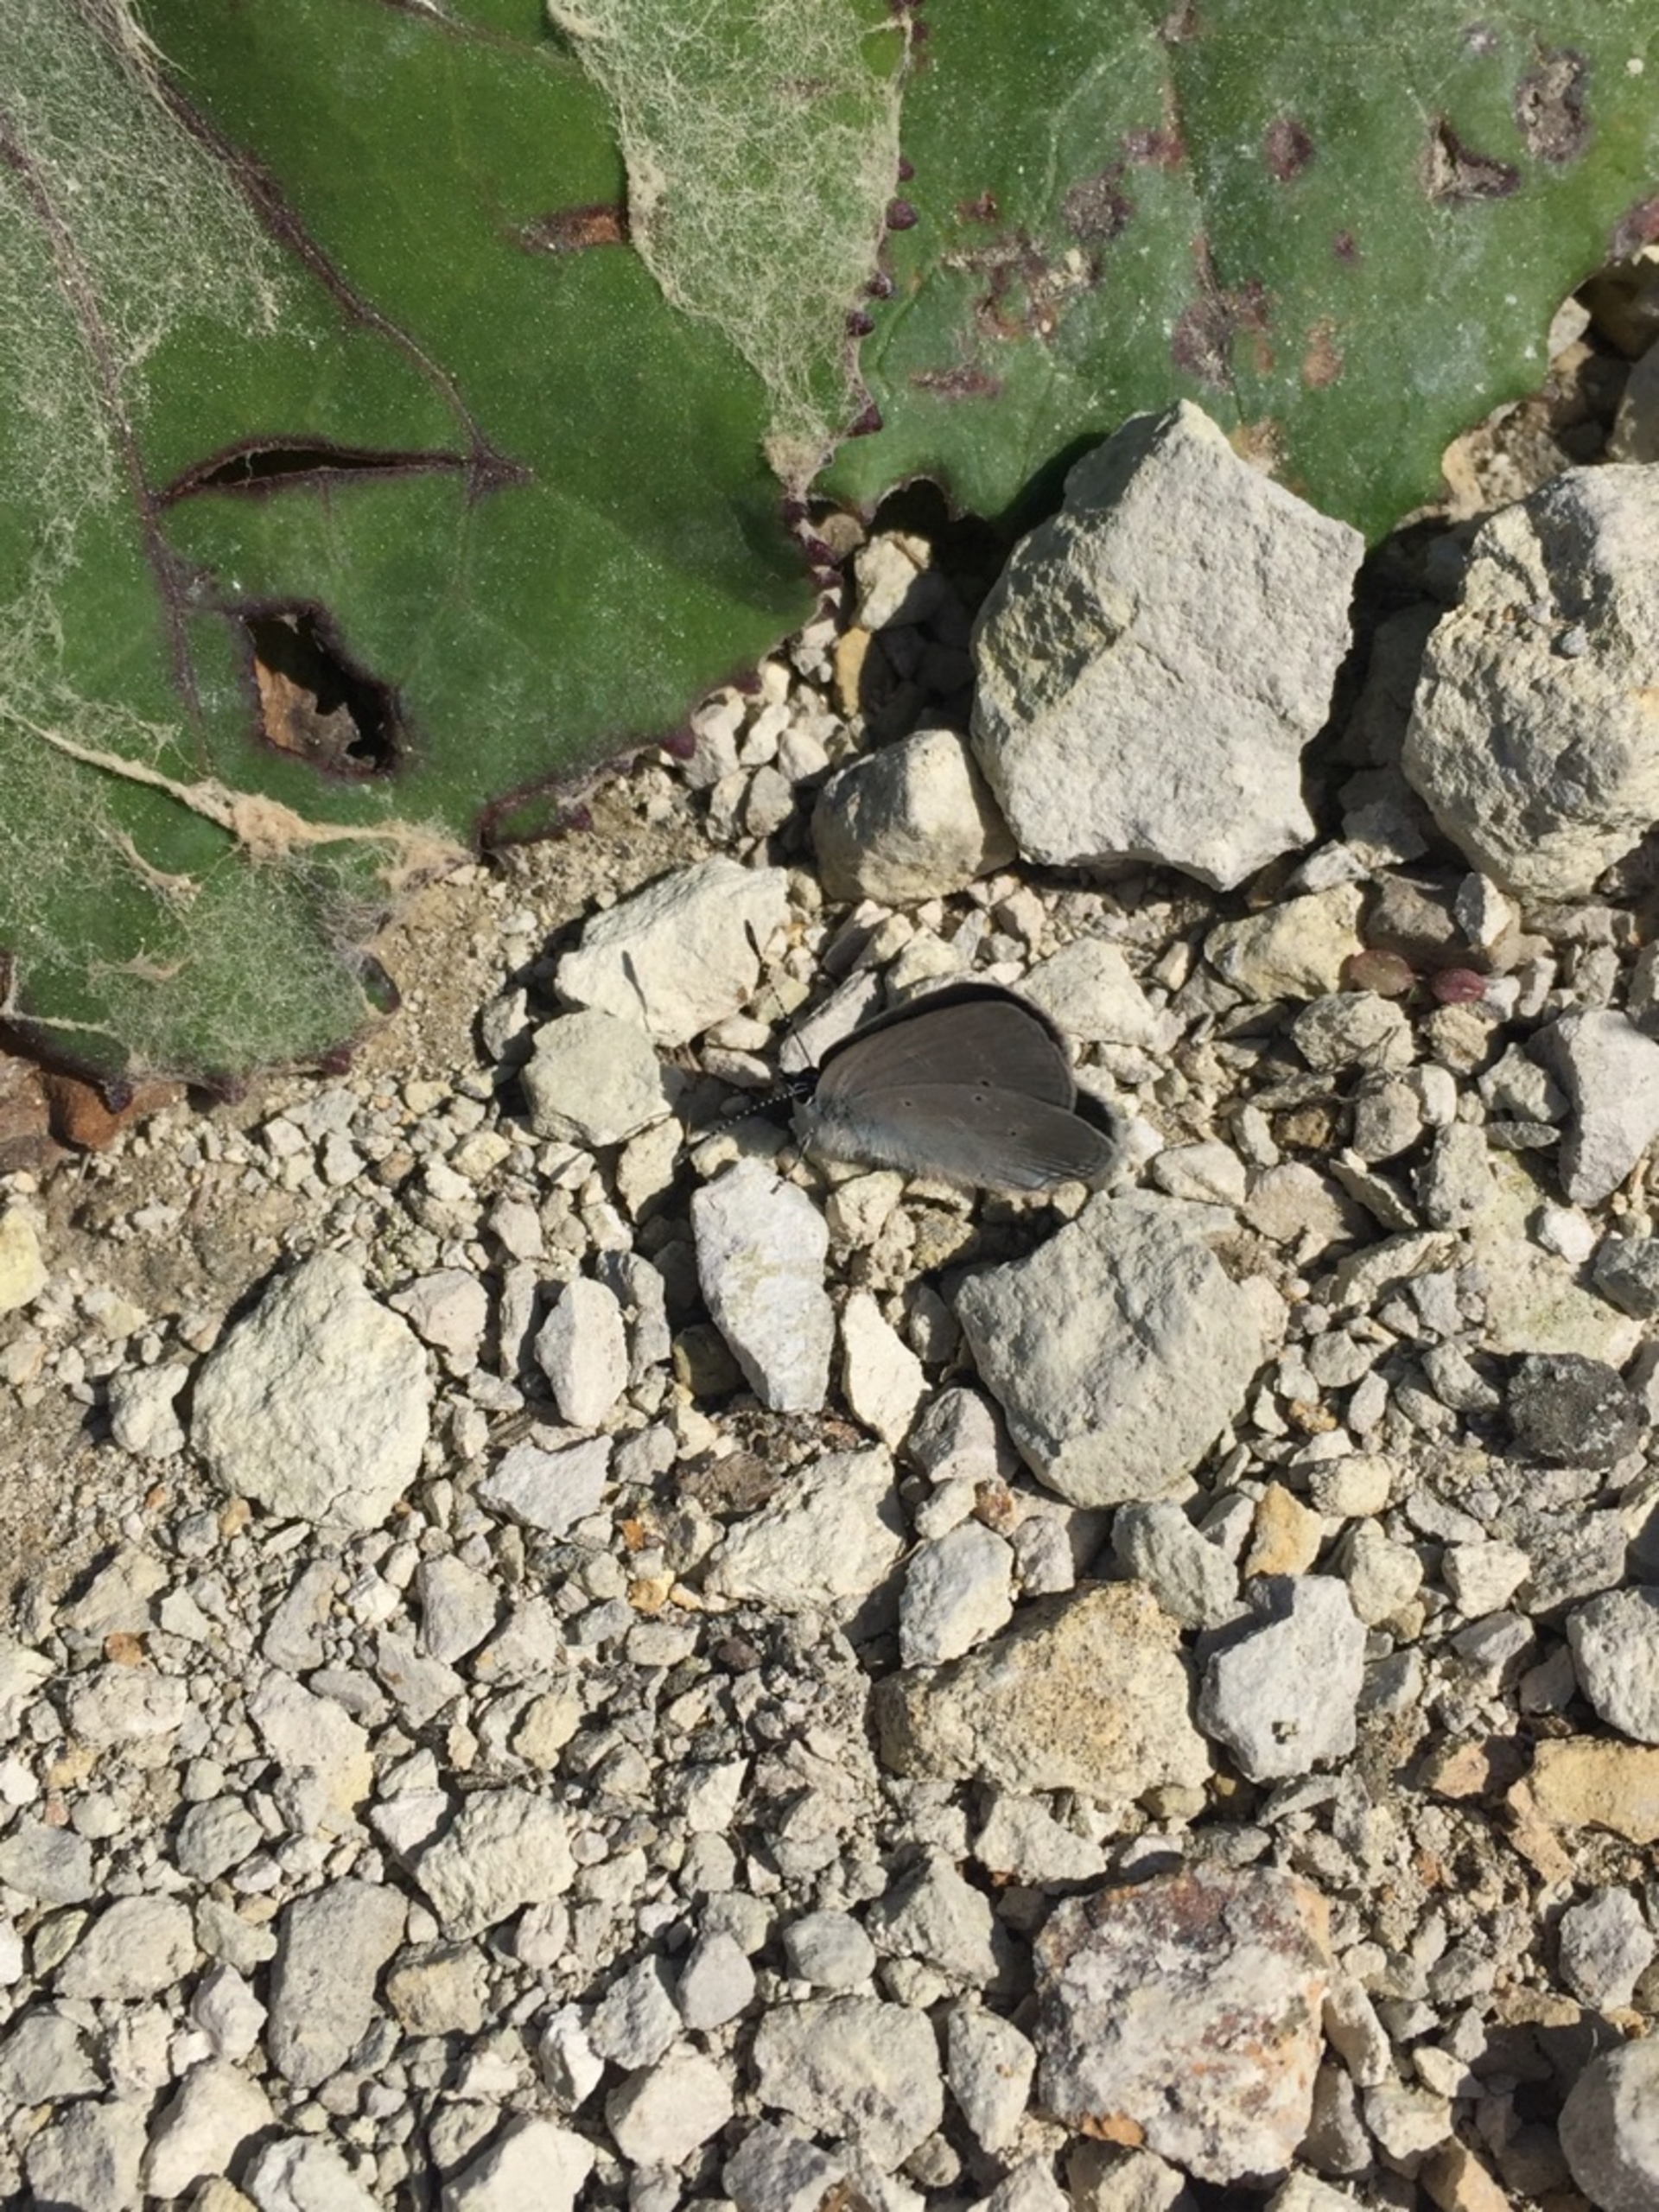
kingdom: Animalia
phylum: Arthropoda
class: Insecta
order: Lepidoptera
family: Lycaenidae
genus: Cupido
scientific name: Cupido minimus
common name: Dværgblåfugl
